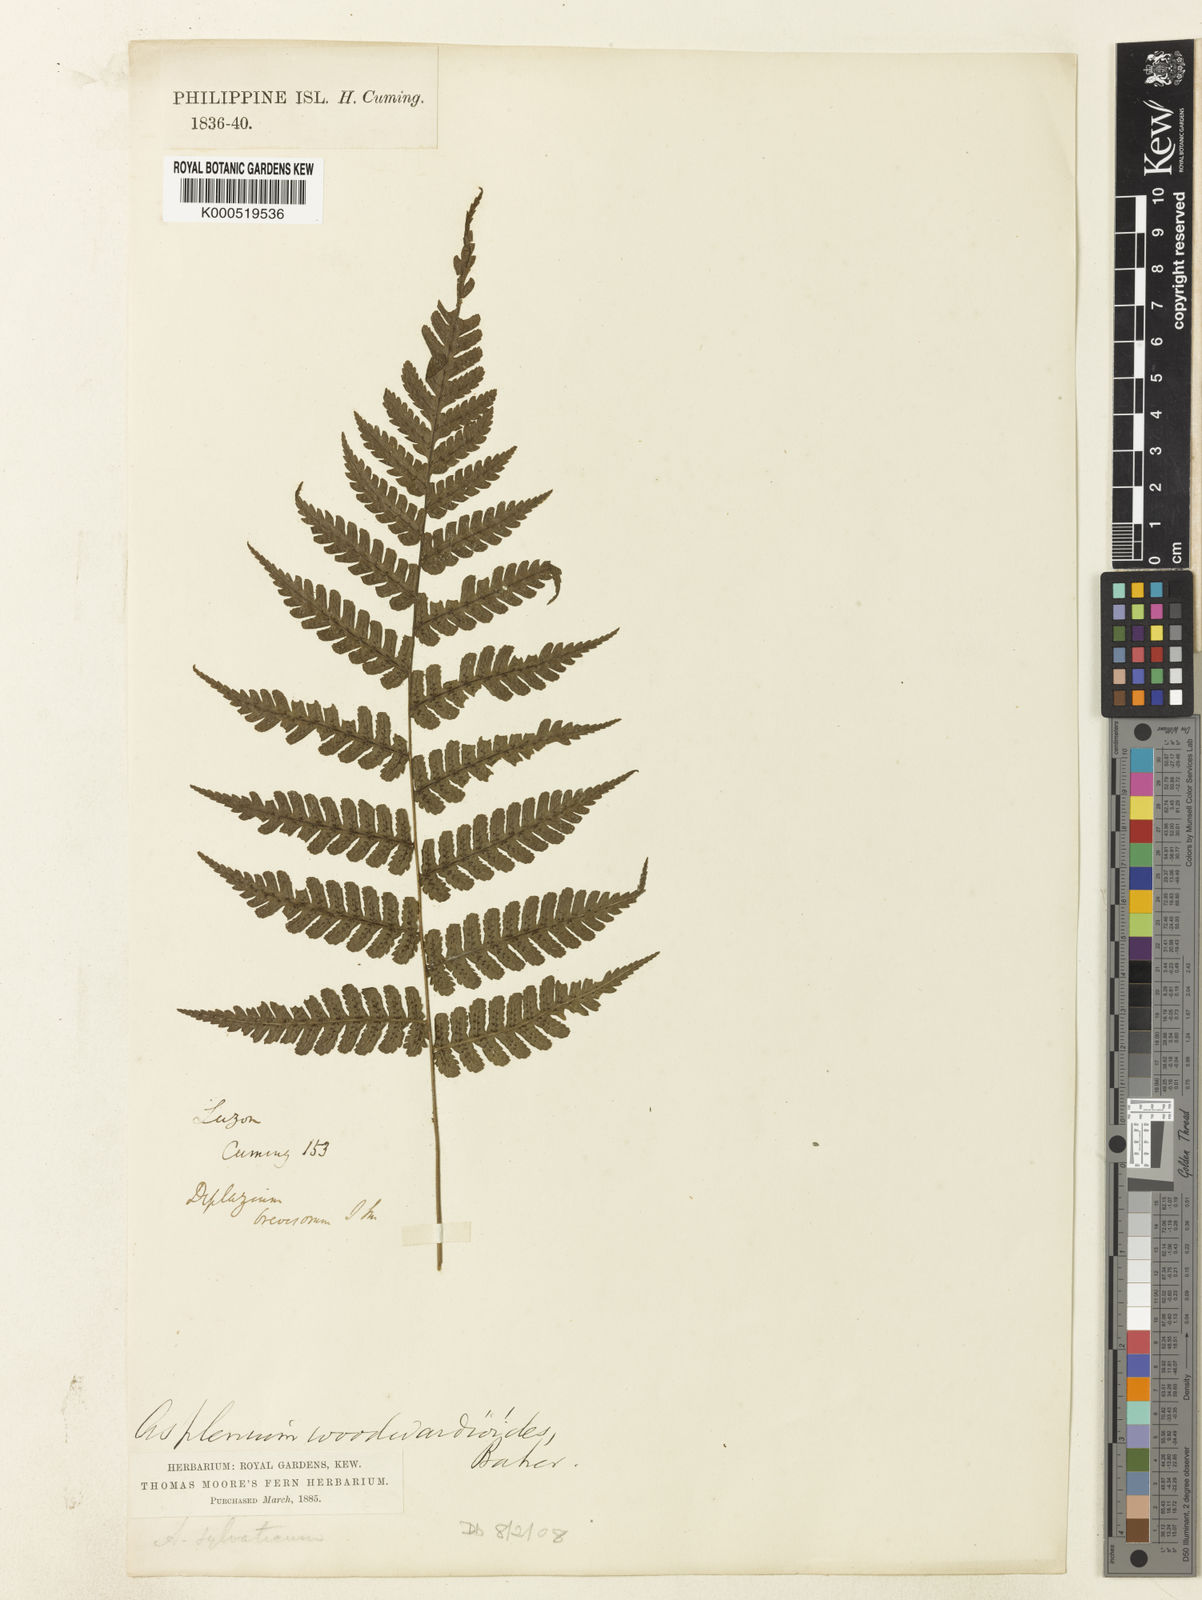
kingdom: Plantae
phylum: Tracheophyta
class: Polypodiopsida
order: Polypodiales
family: Athyriaceae
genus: Diplazium
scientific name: Diplazium woodwardioides
